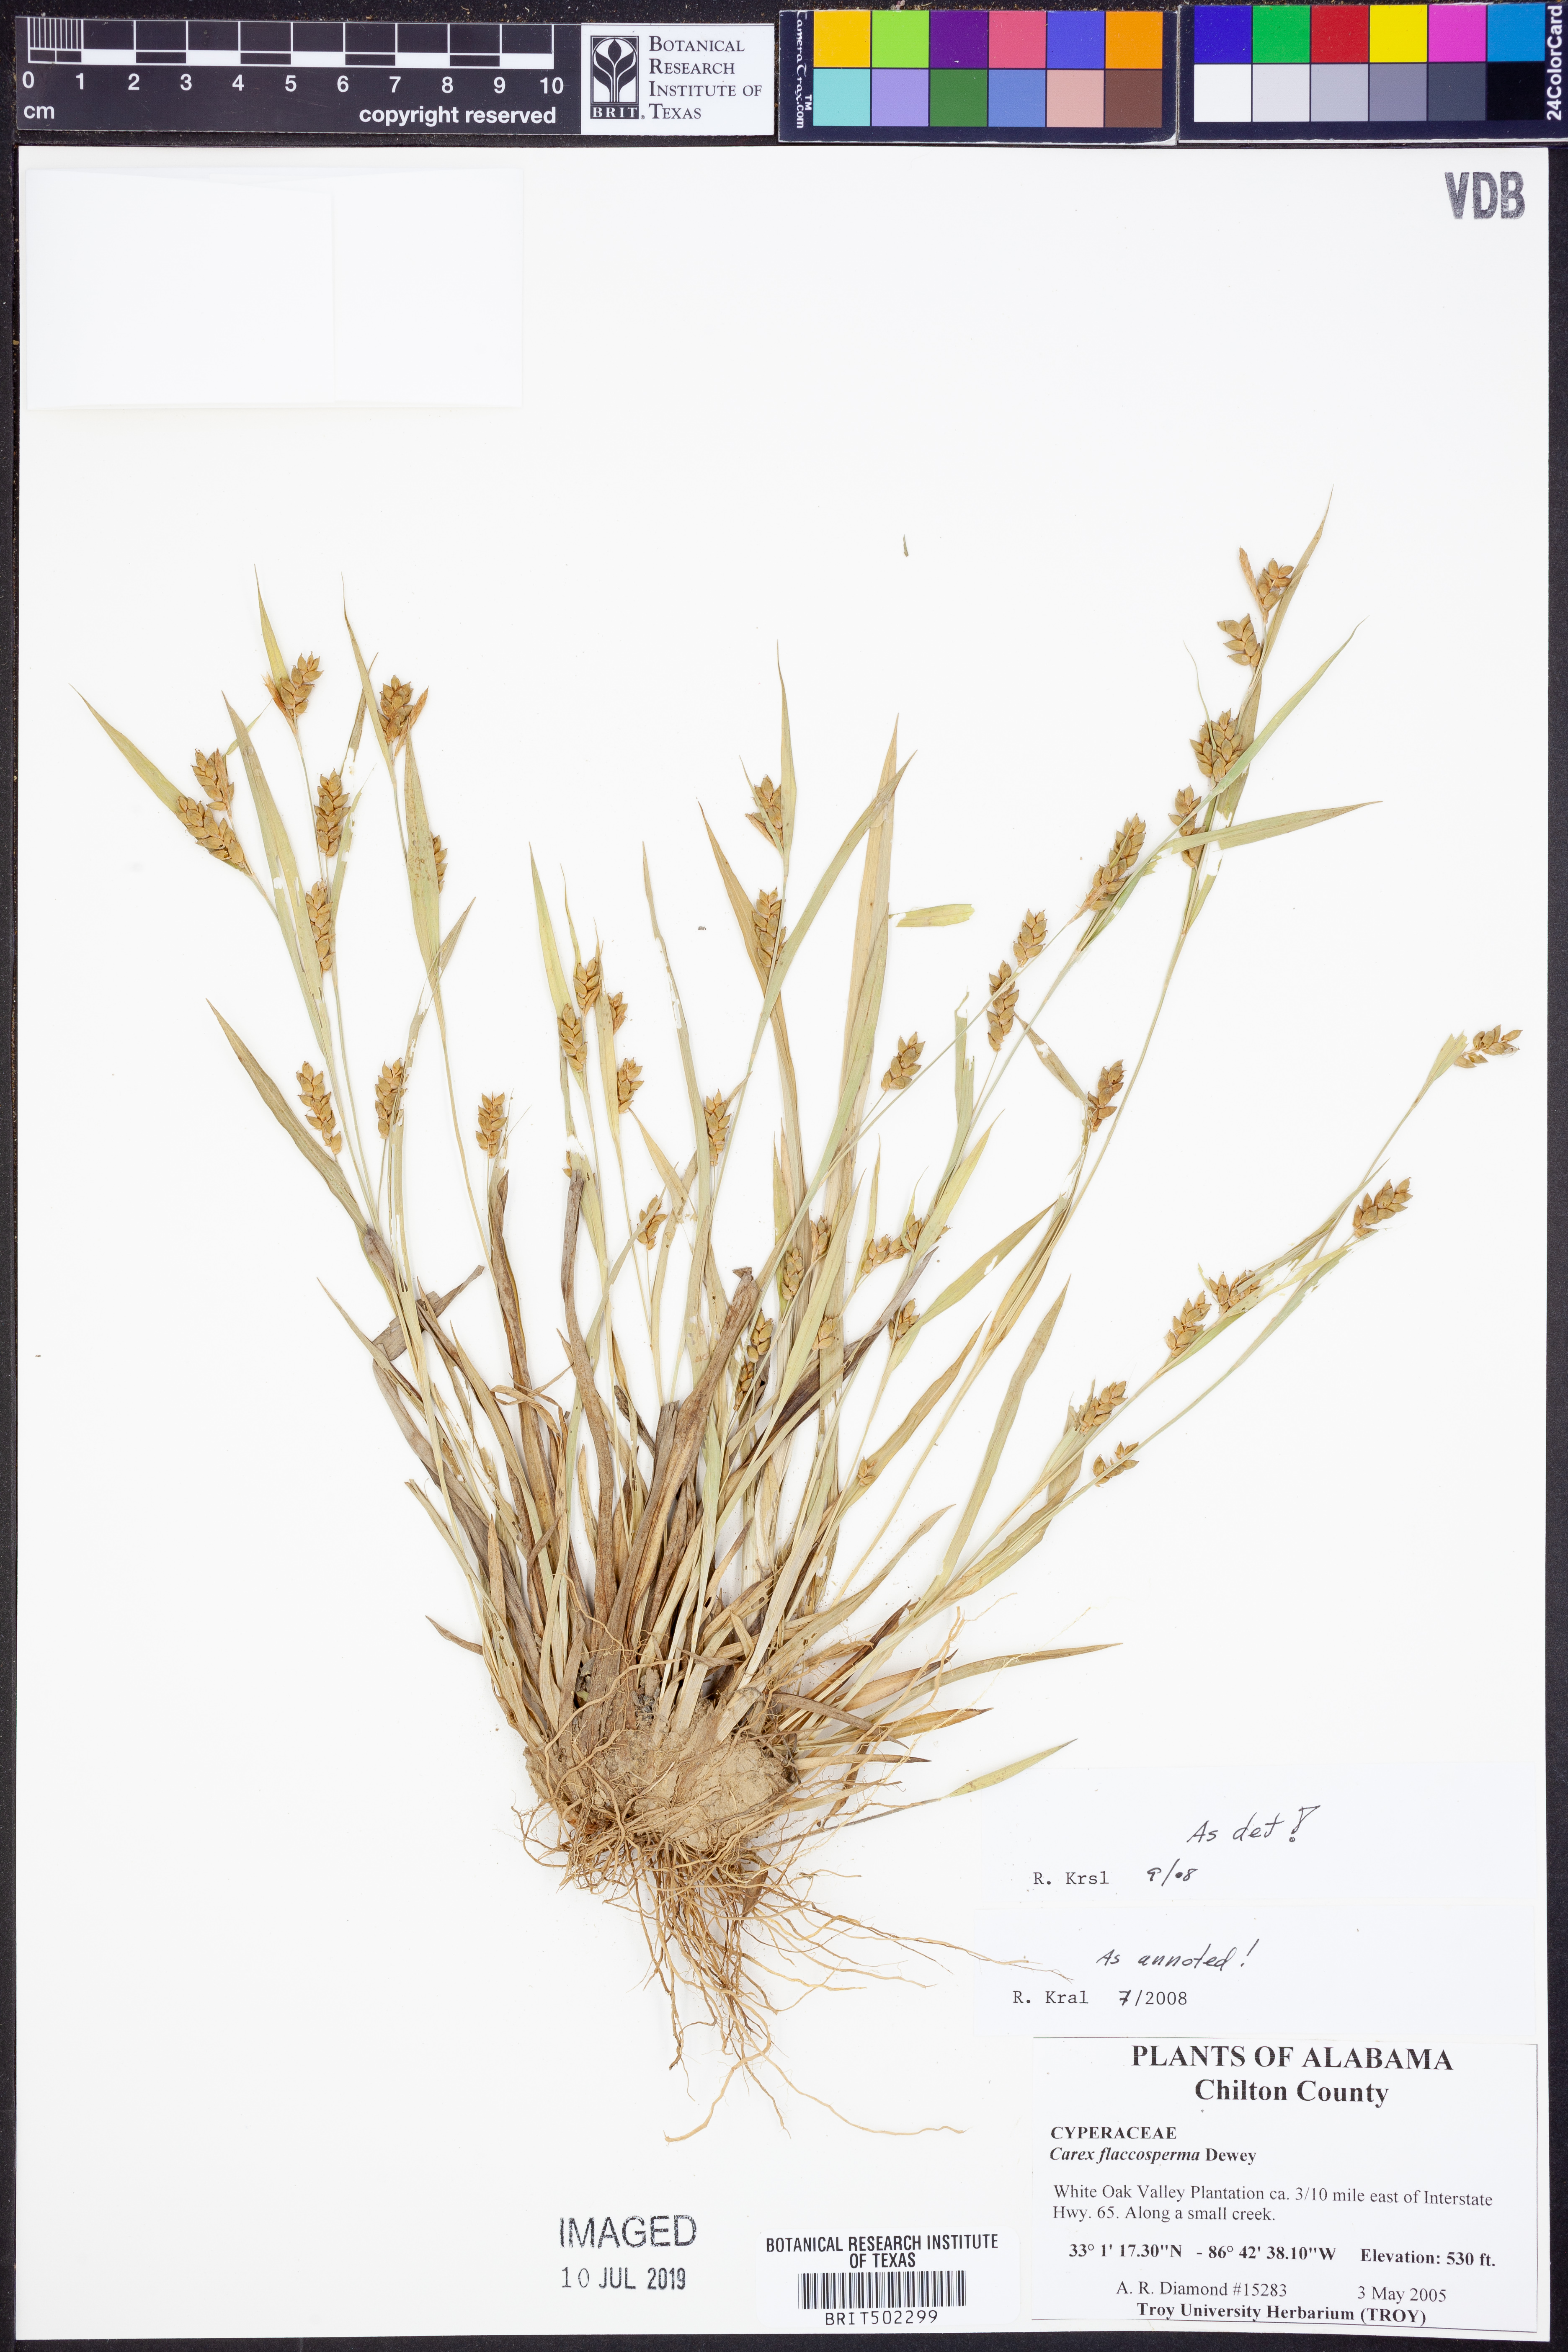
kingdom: Plantae
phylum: Tracheophyta
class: Liliopsida
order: Poales
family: Cyperaceae
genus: Carex
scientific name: Carex flaccosperma
